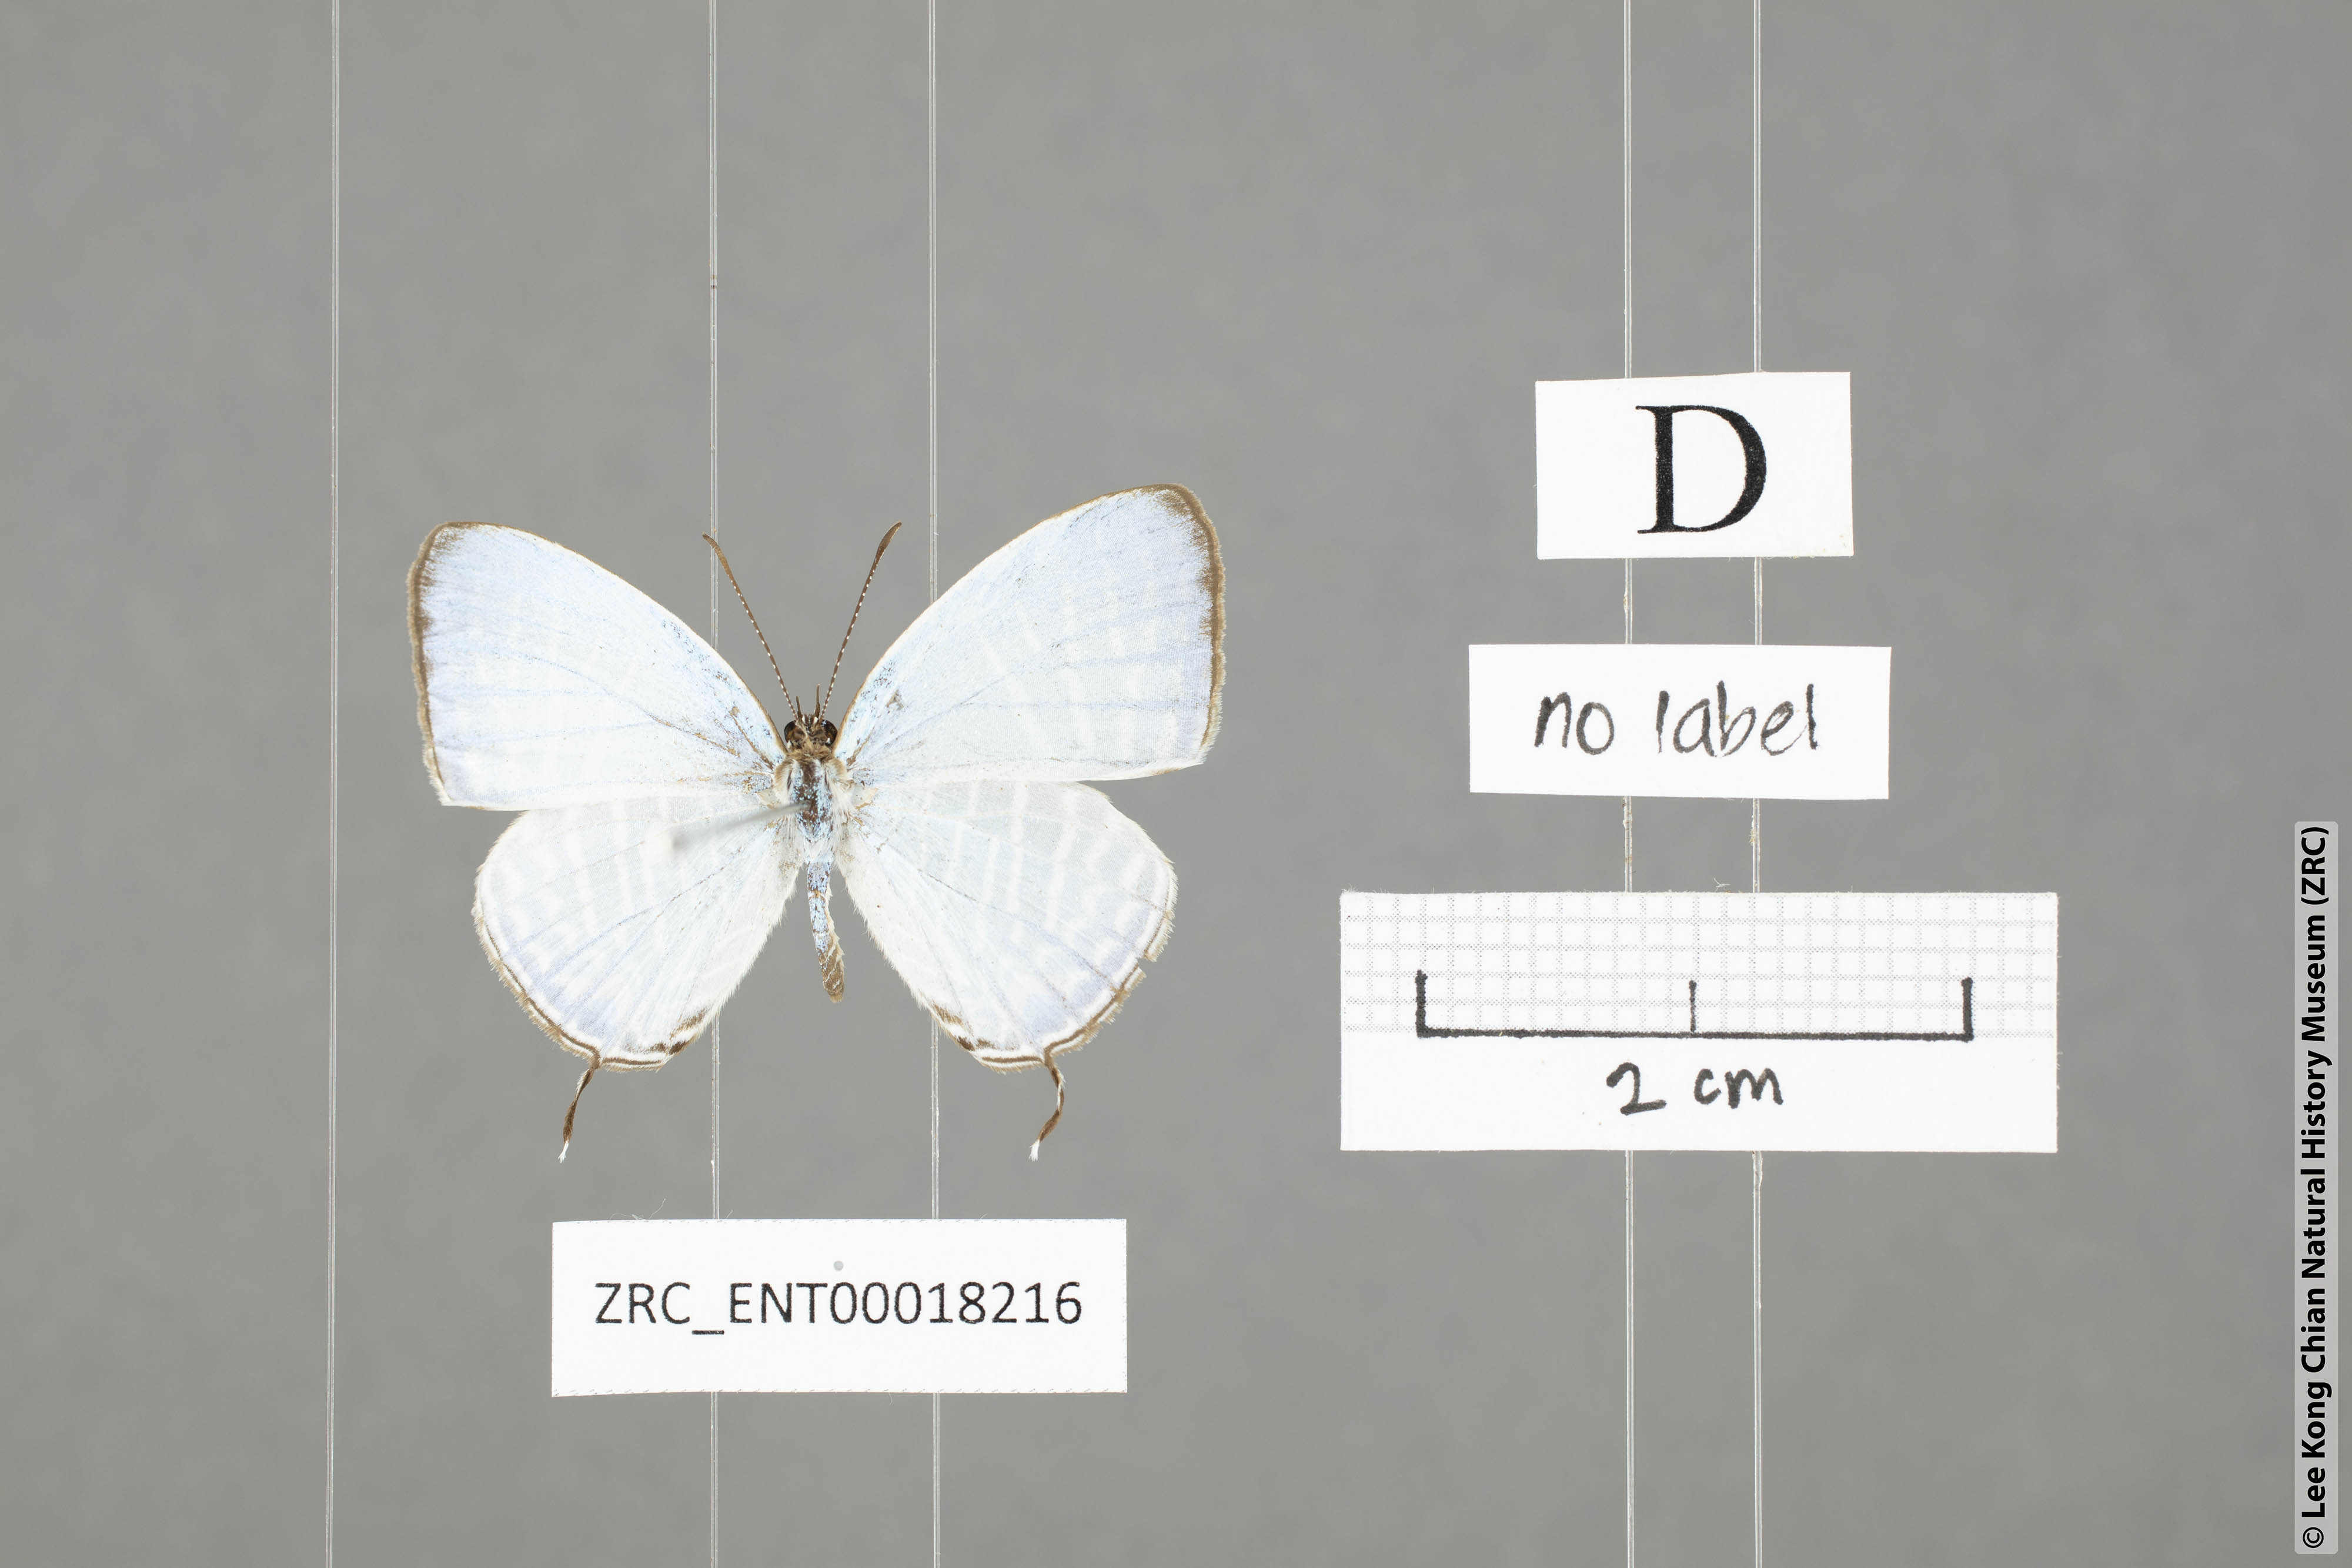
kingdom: Animalia
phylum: Arthropoda
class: Insecta
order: Lepidoptera
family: Lycaenidae
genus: Jamides
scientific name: Jamides zebra
